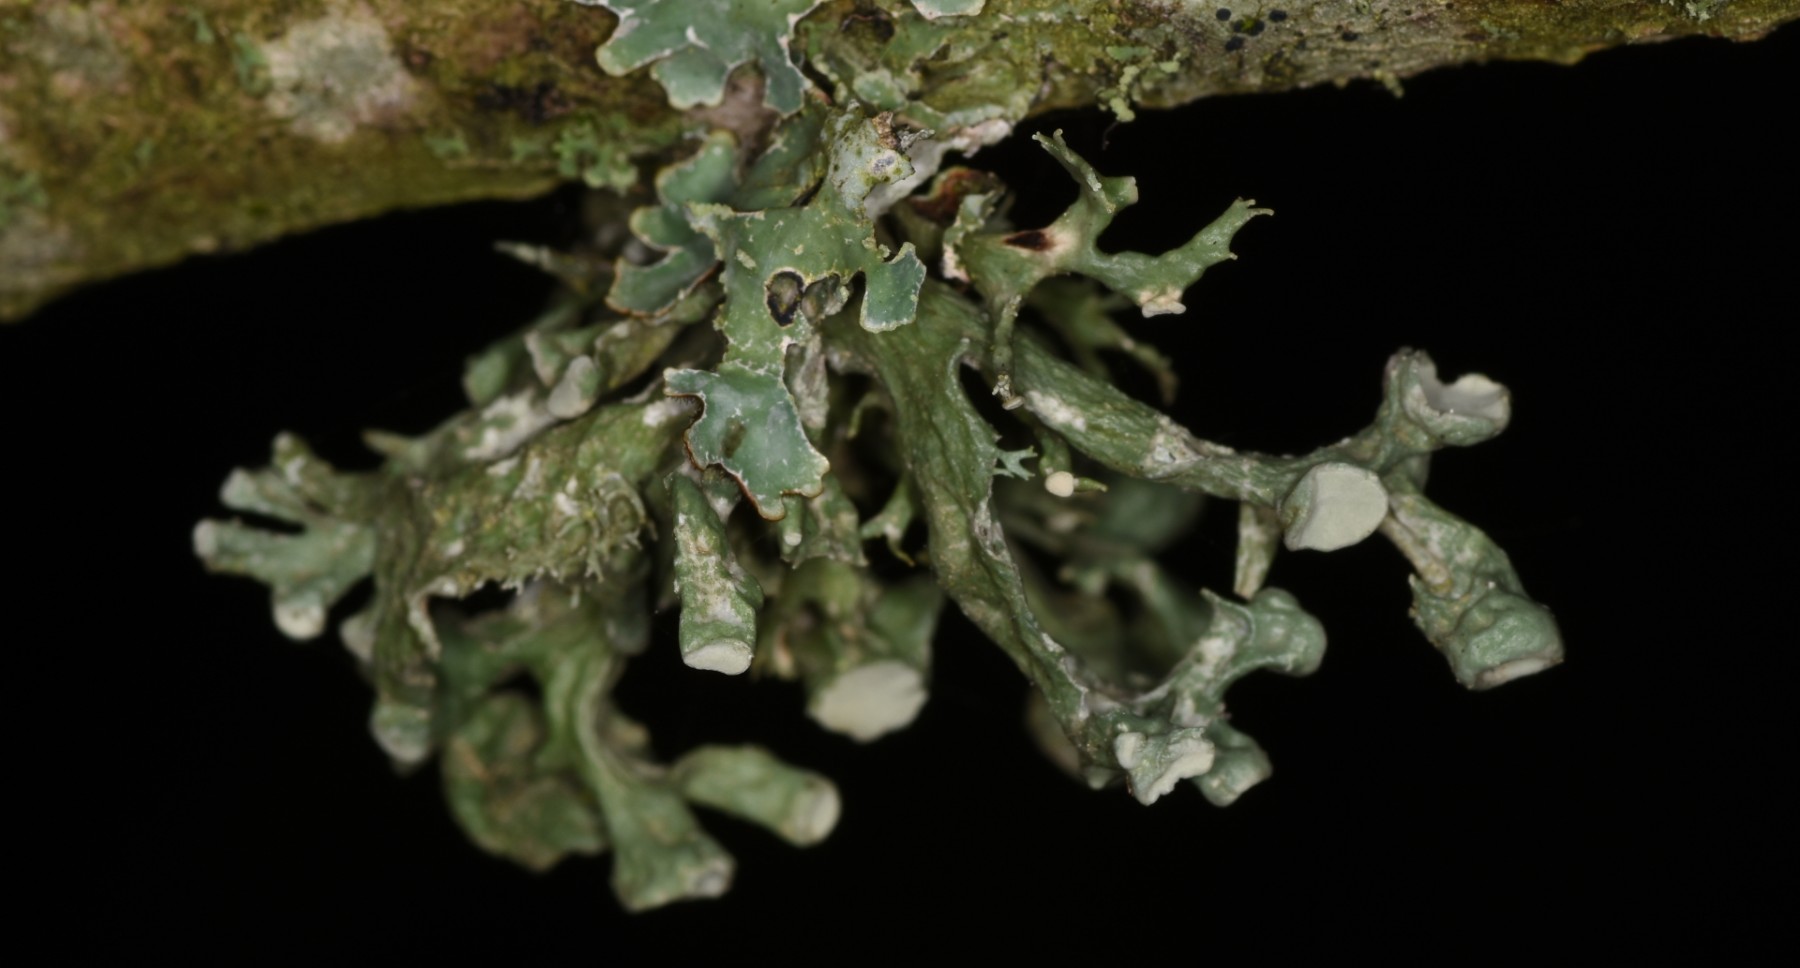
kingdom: Fungi
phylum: Ascomycota
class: Lecanoromycetes
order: Lecanorales
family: Ramalinaceae
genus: Ramalina
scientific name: Ramalina fastigiata
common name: tue-grenlav
